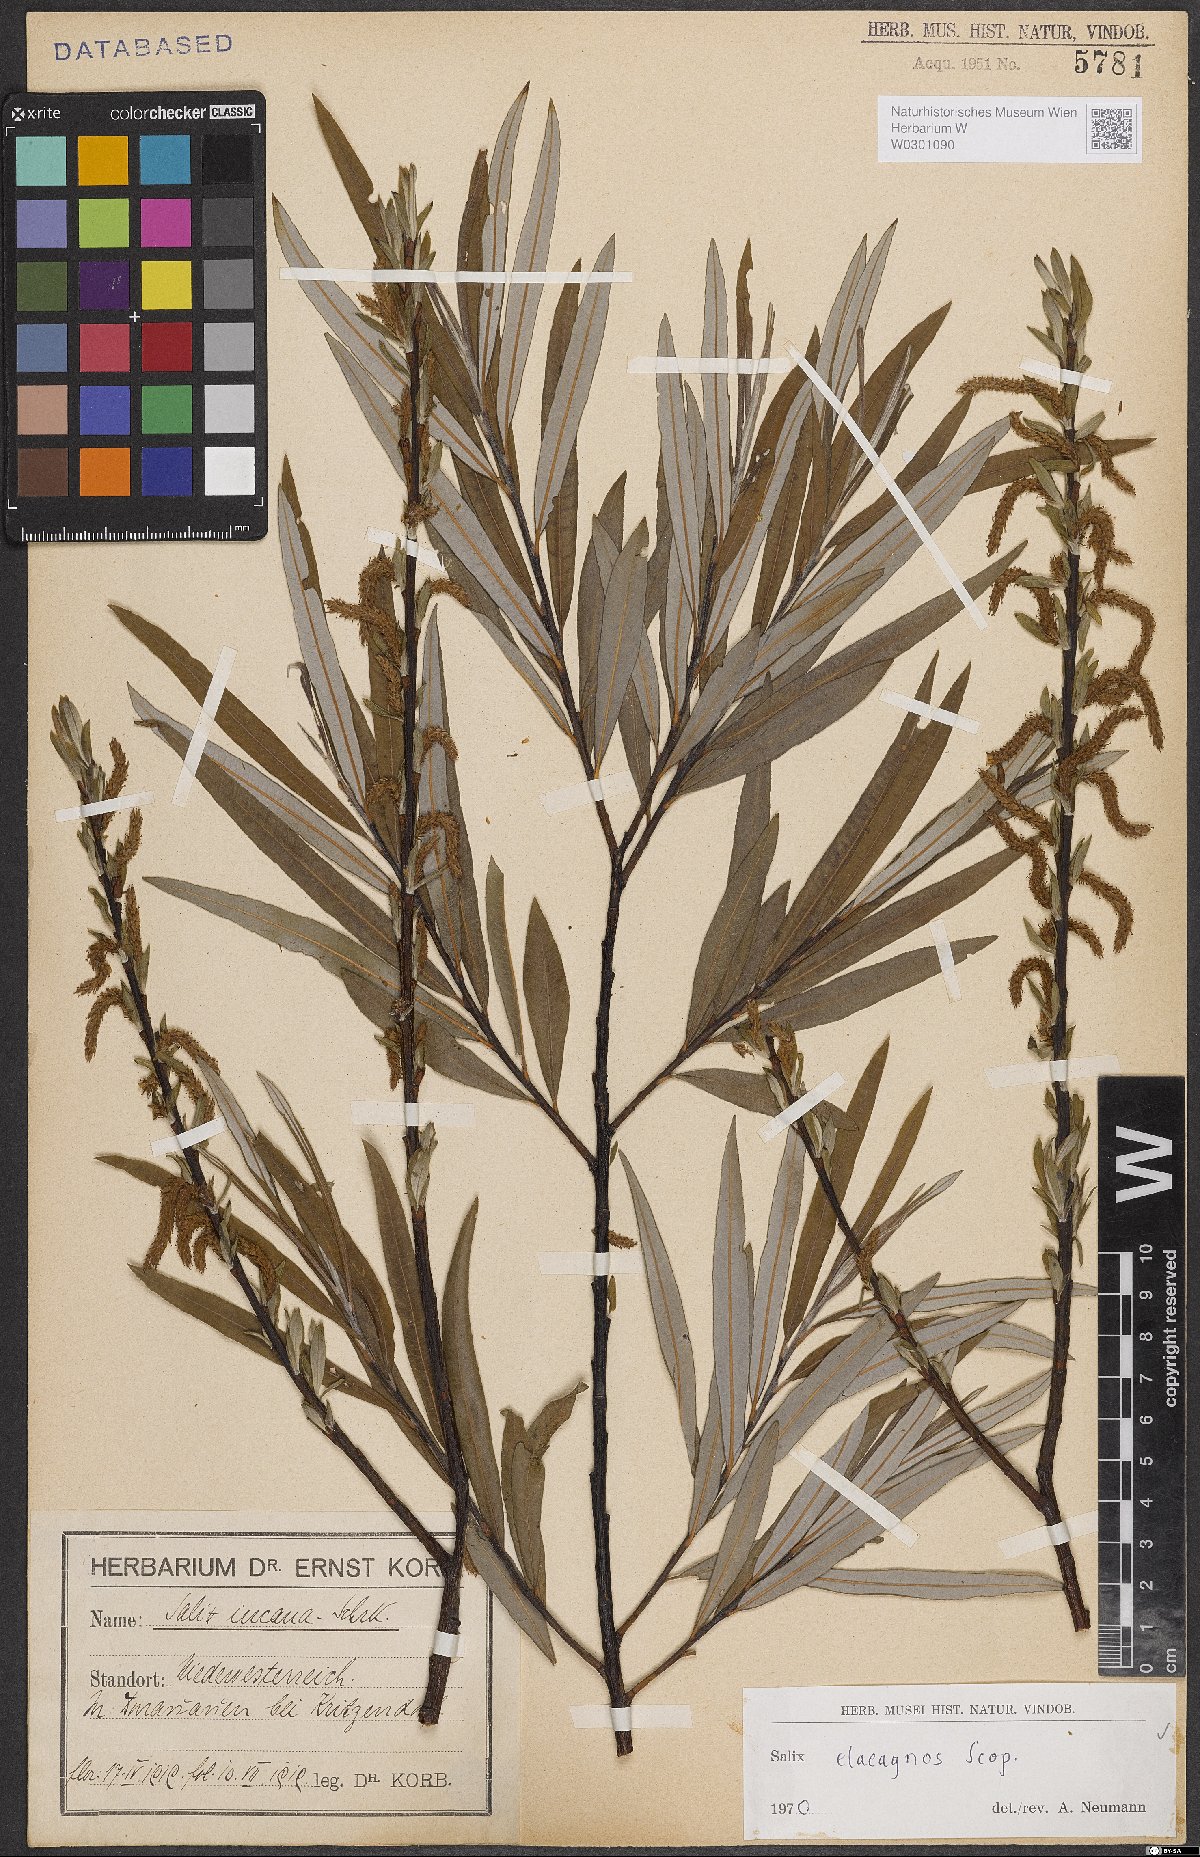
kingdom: Plantae
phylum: Tracheophyta
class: Magnoliopsida
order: Malpighiales
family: Salicaceae
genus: Salix
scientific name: Salix eleagnos
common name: Elaeagnus willow
